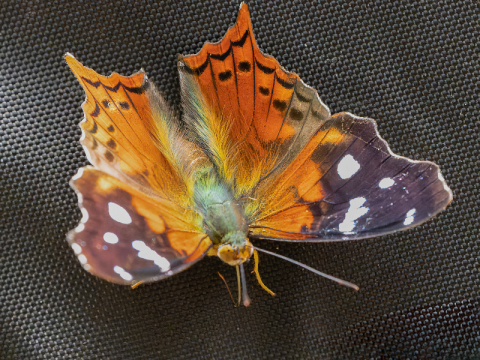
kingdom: Animalia
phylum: Arthropoda
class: Insecta
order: Lepidoptera
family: Nymphalidae
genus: Hypanartia
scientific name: Hypanartia kefersteini
